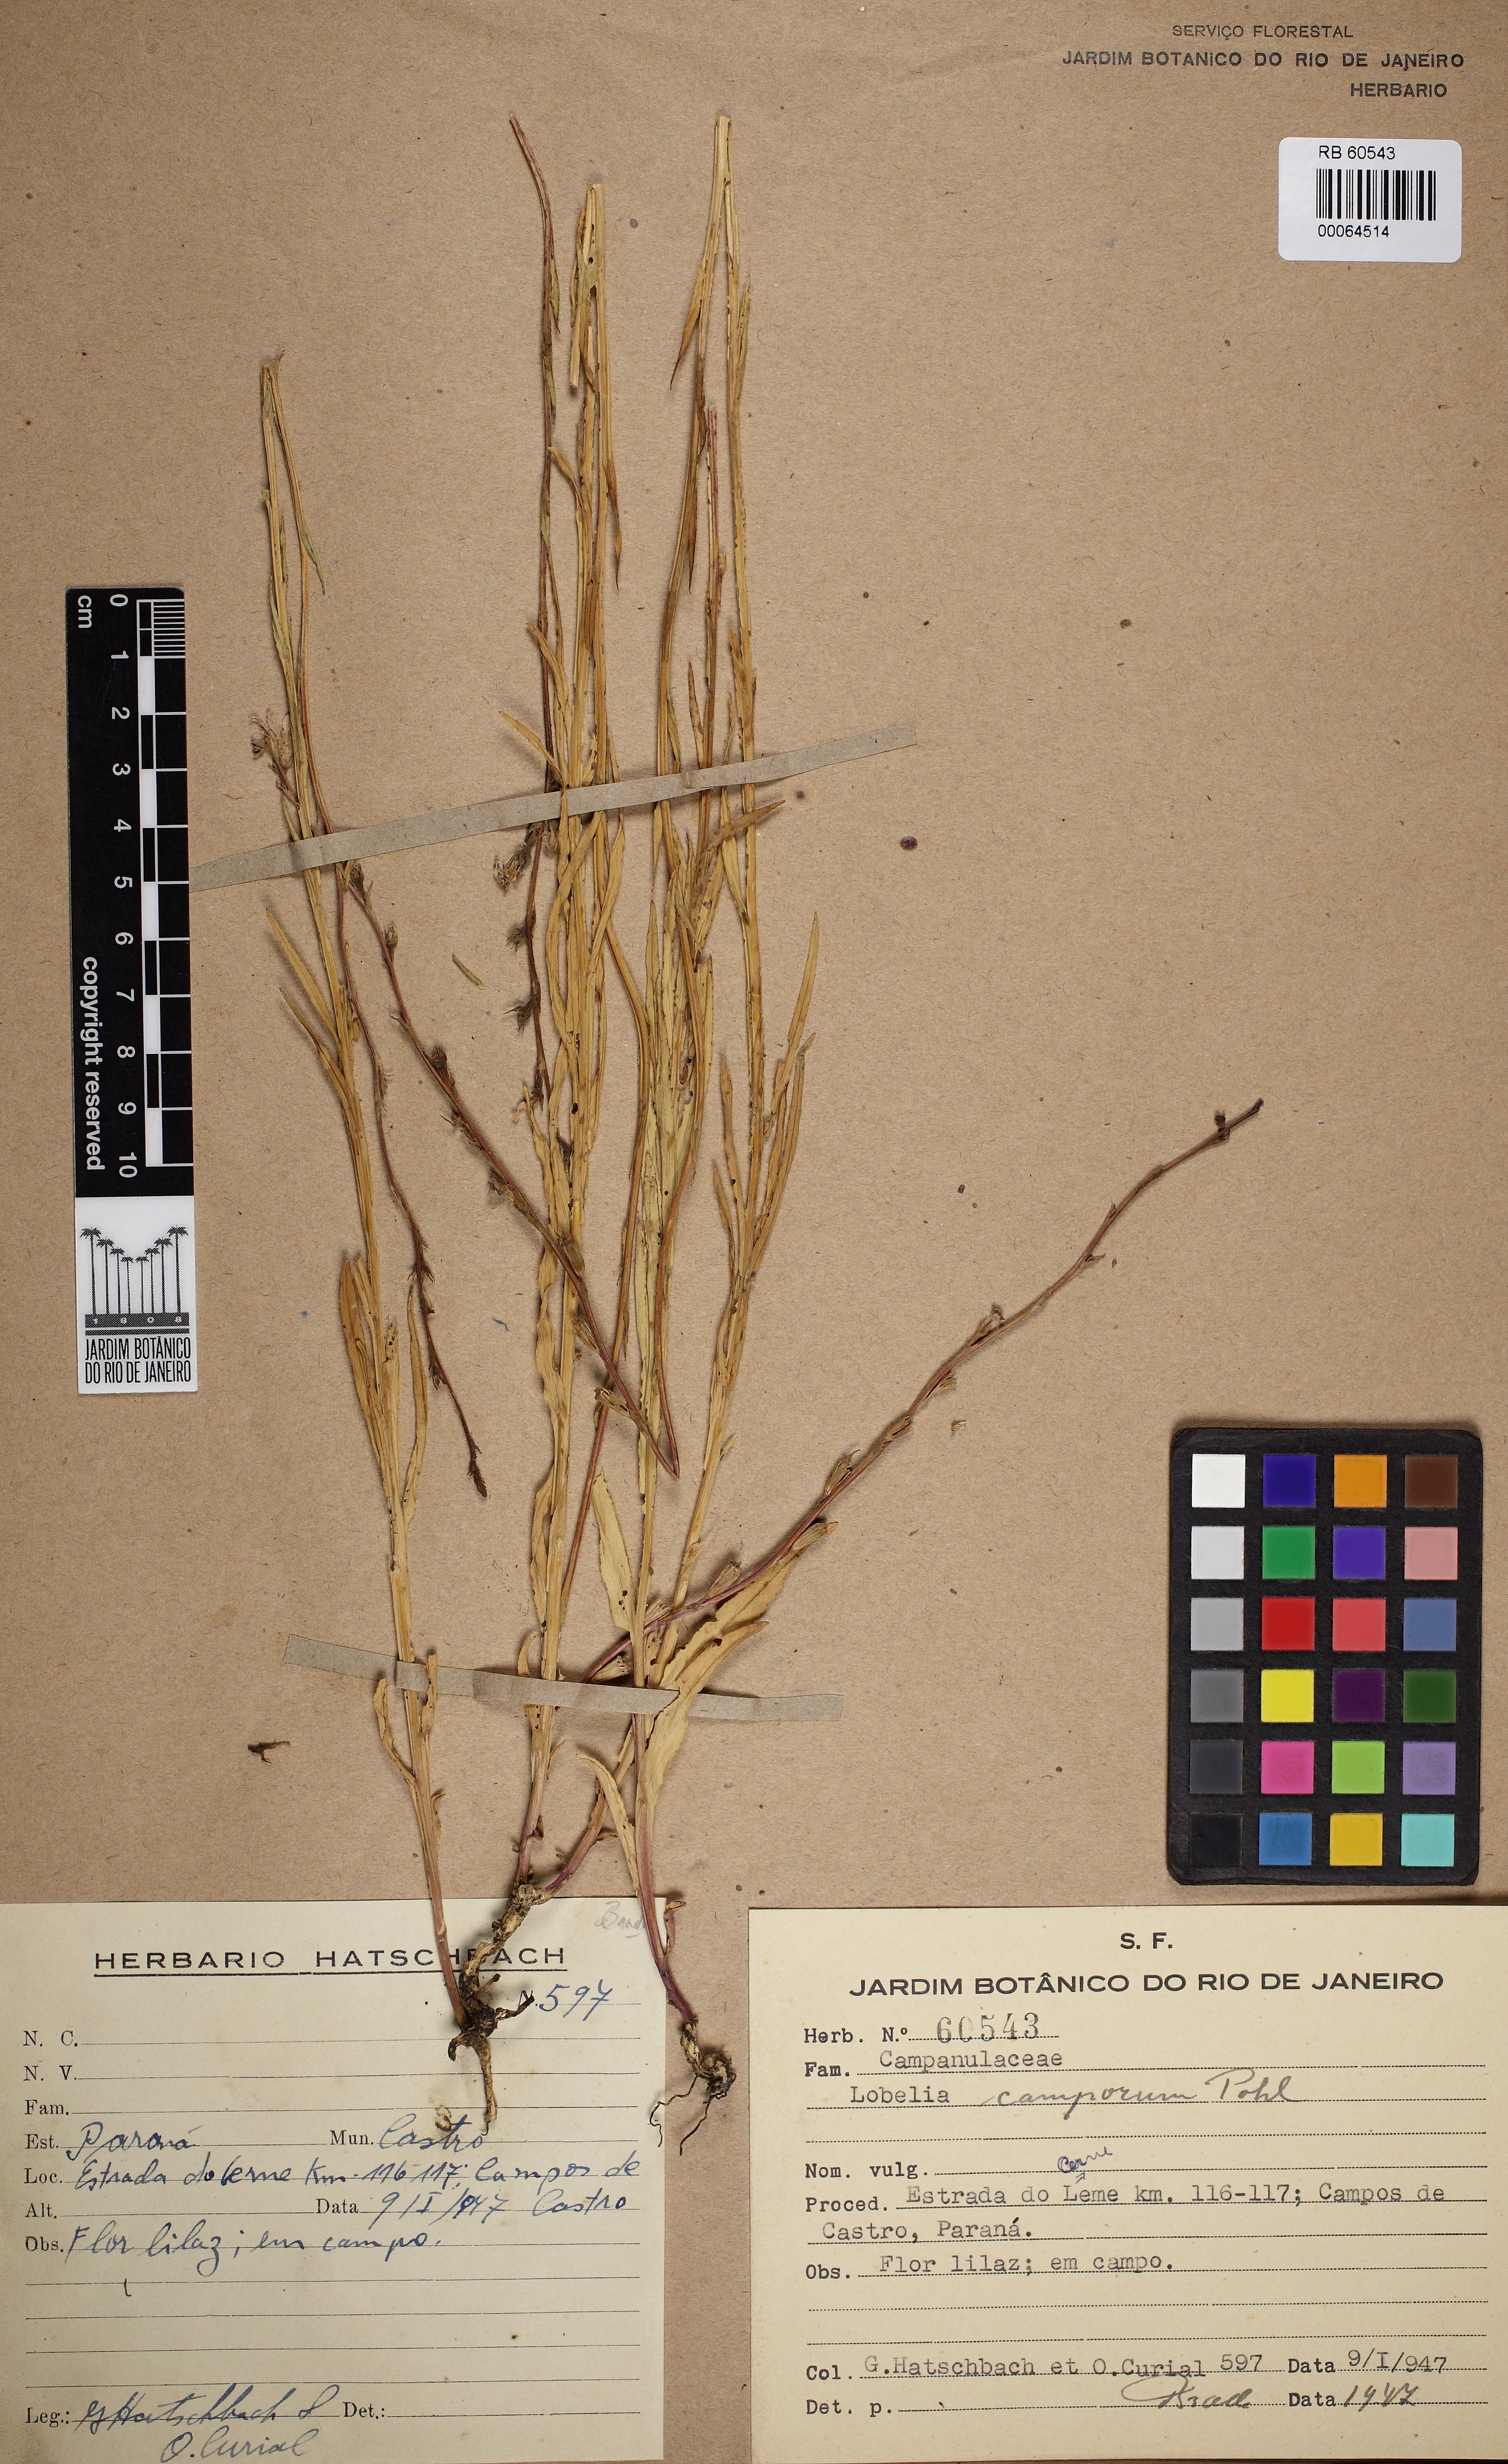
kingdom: Plantae
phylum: Tracheophyta
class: Magnoliopsida
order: Asterales
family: Campanulaceae
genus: Lobelia
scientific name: Lobelia camporum
